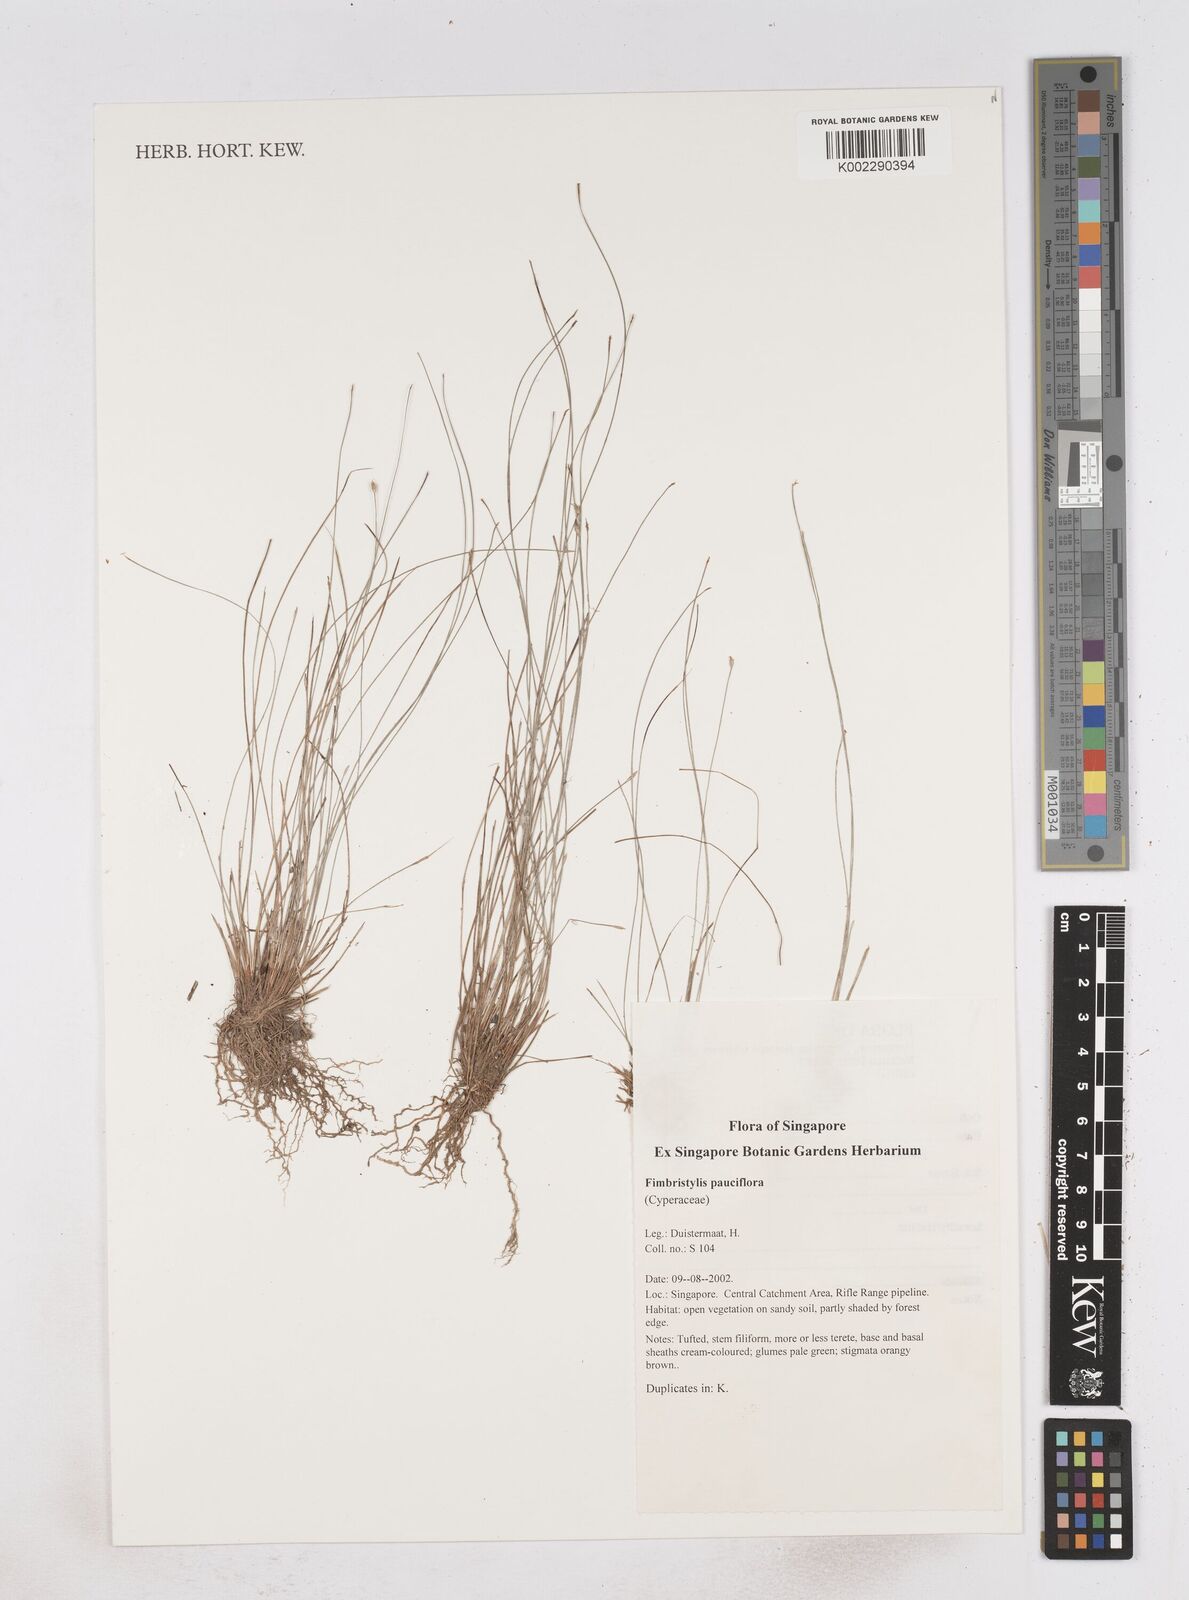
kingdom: Plantae
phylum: Tracheophyta
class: Liliopsida
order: Poales
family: Cyperaceae
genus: Fimbristylis
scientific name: Fimbristylis pauciflora
